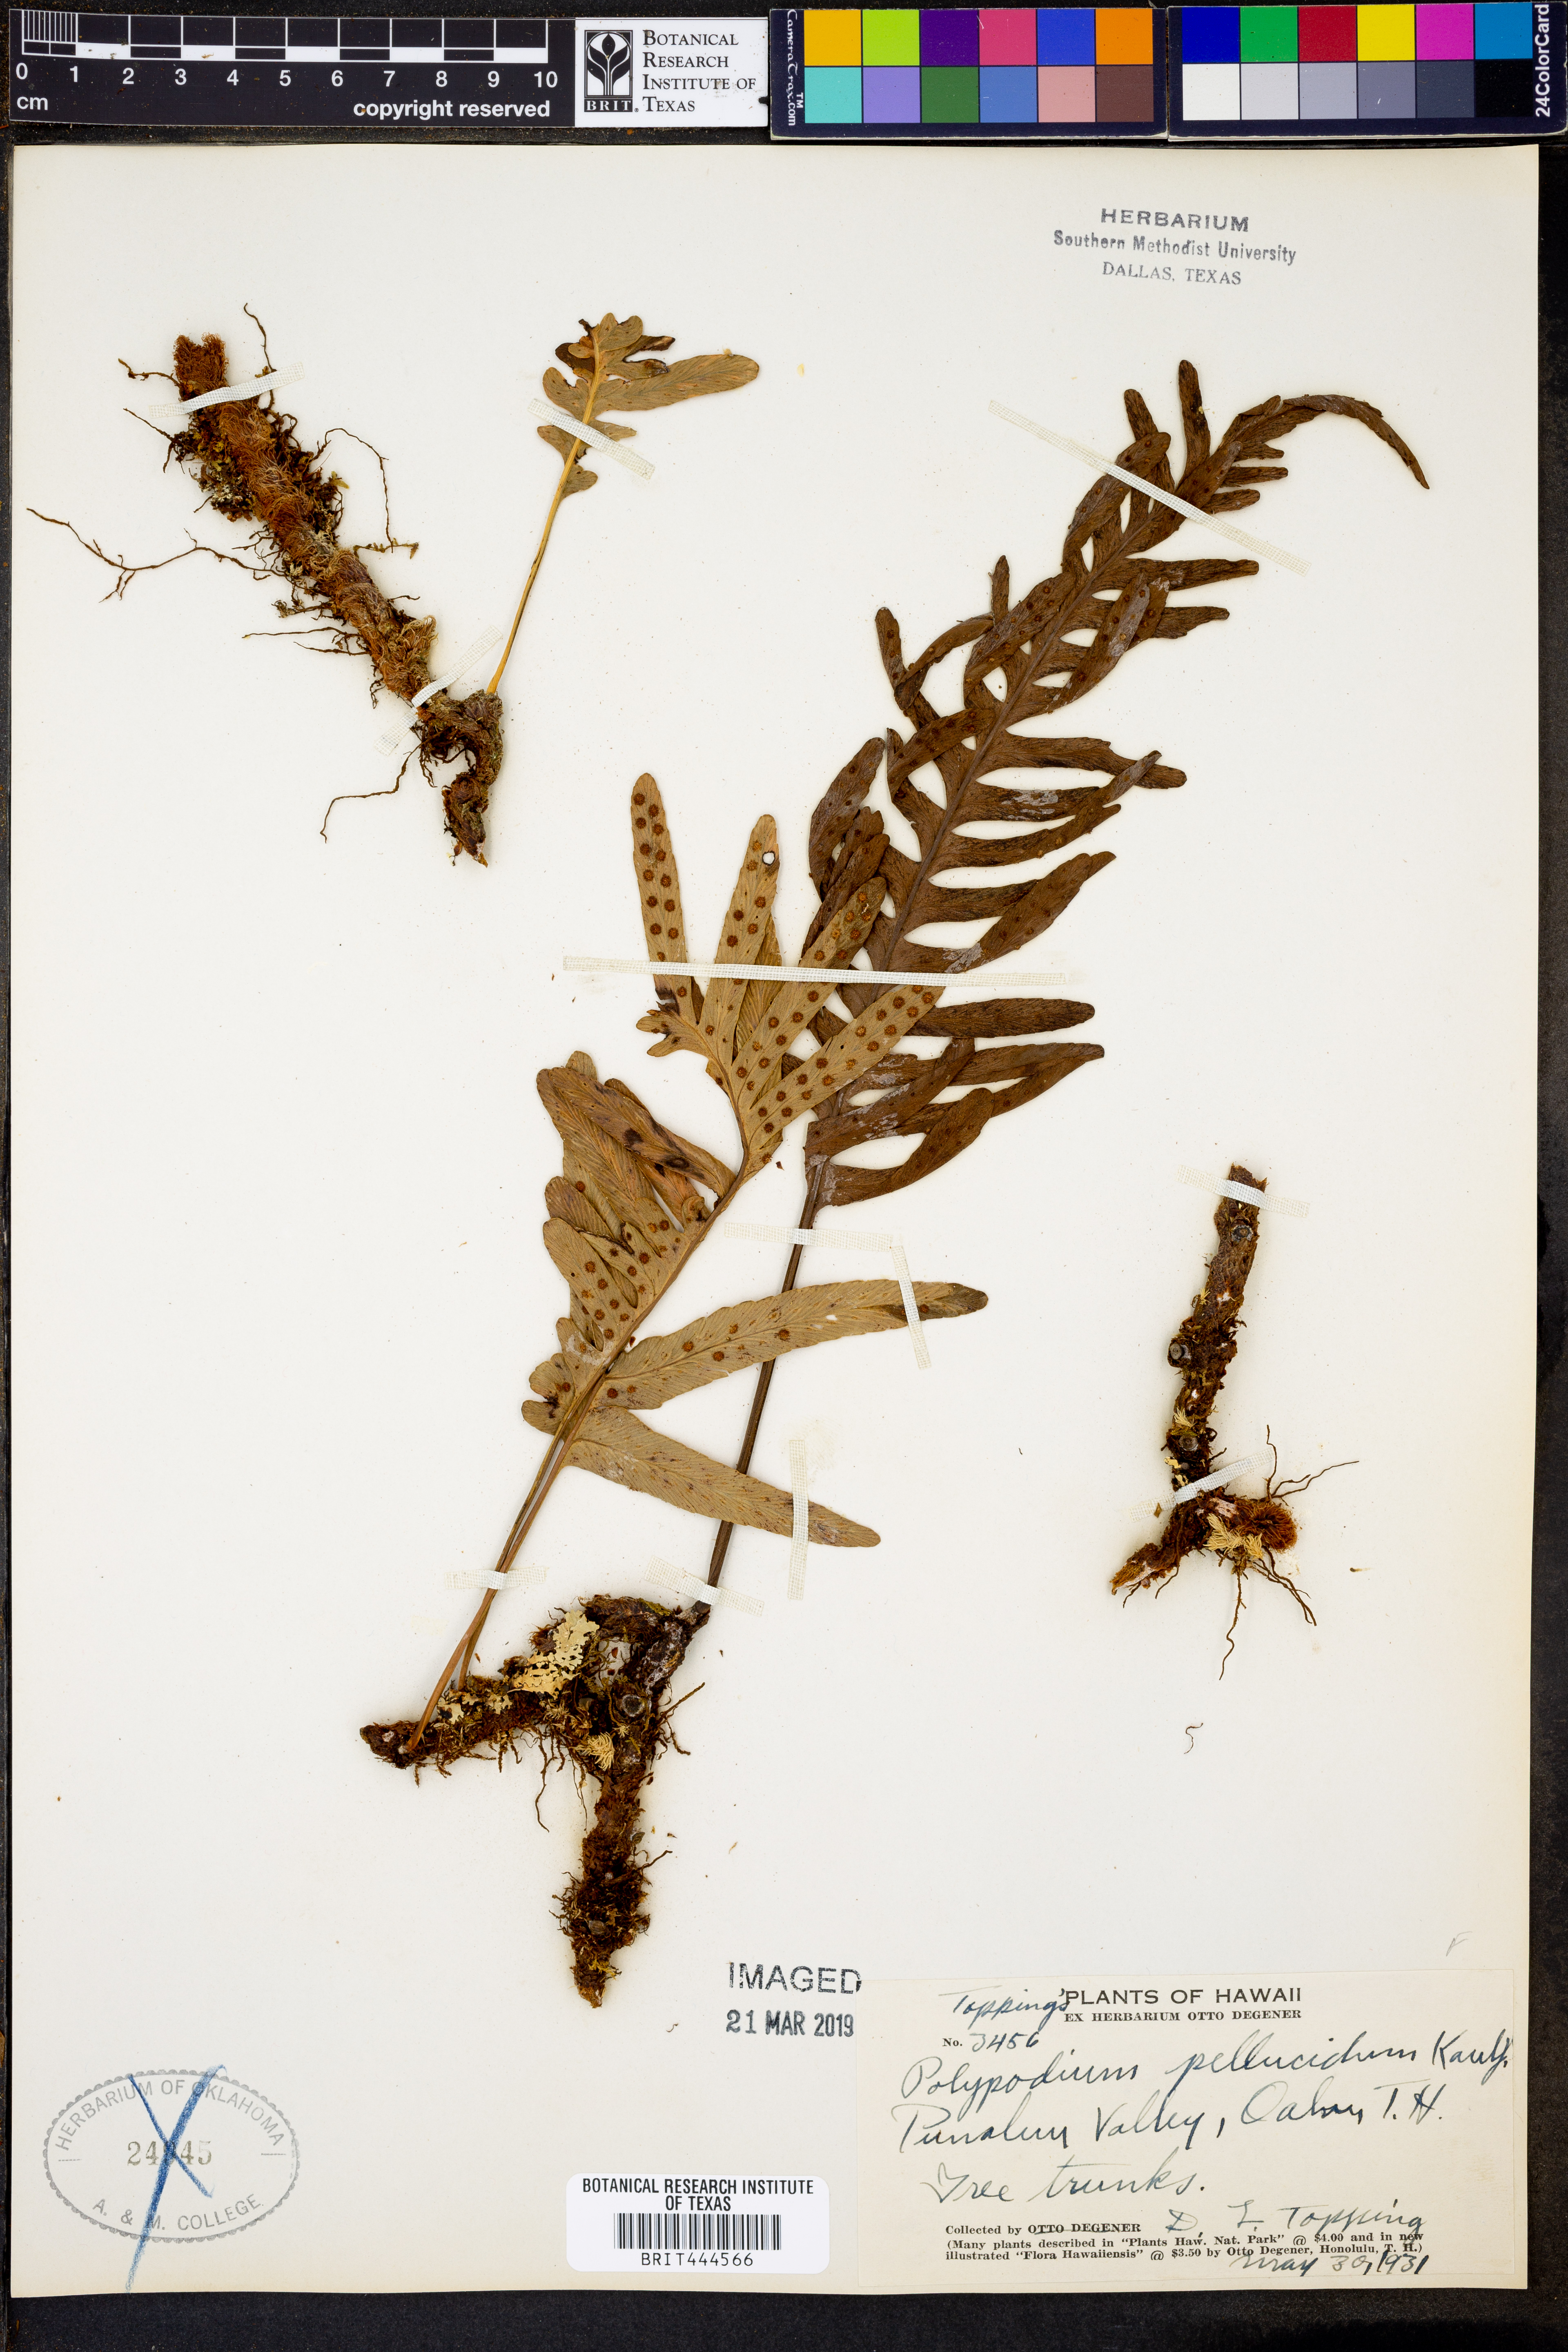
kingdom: Plantae
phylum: Tracheophyta
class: Polypodiopsida
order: Polypodiales
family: Polypodiaceae
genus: Polypodium
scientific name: Polypodium pellucidum
